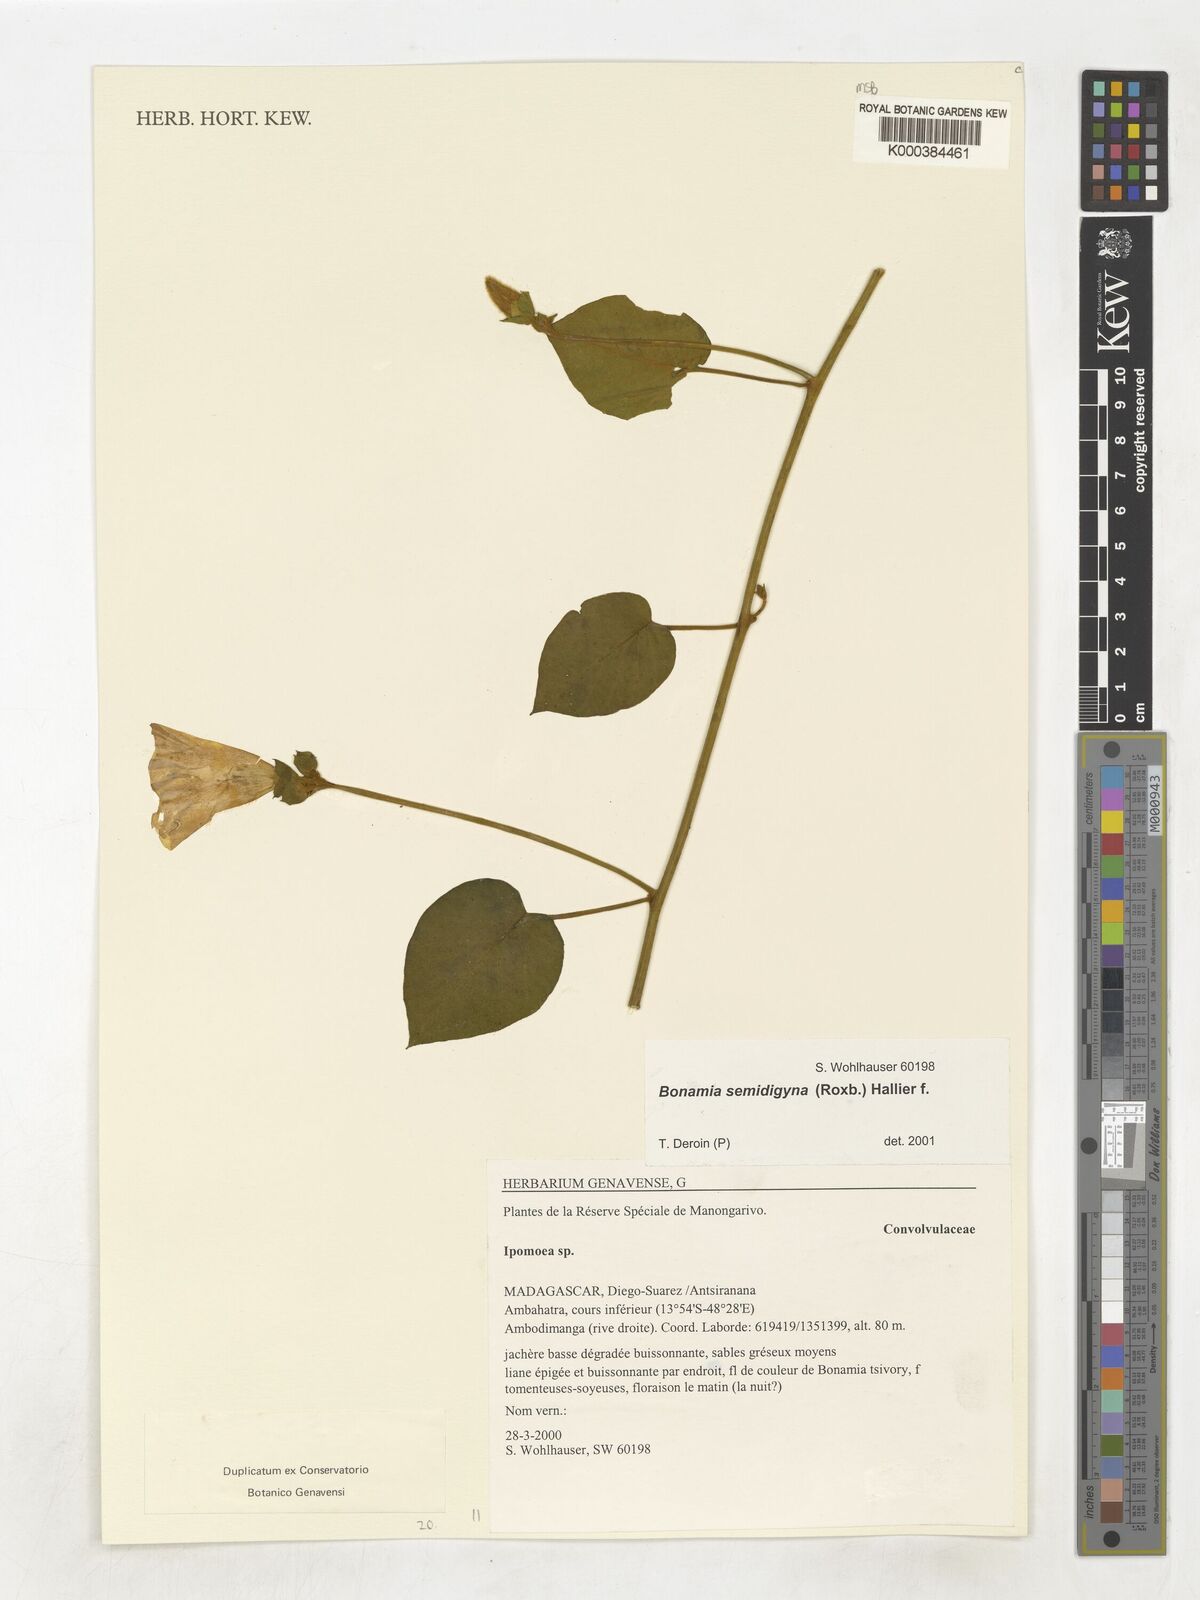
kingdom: Plantae
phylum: Tracheophyta
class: Magnoliopsida
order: Solanales
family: Convolvulaceae
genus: Bonamia
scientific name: Bonamia semidigyna
